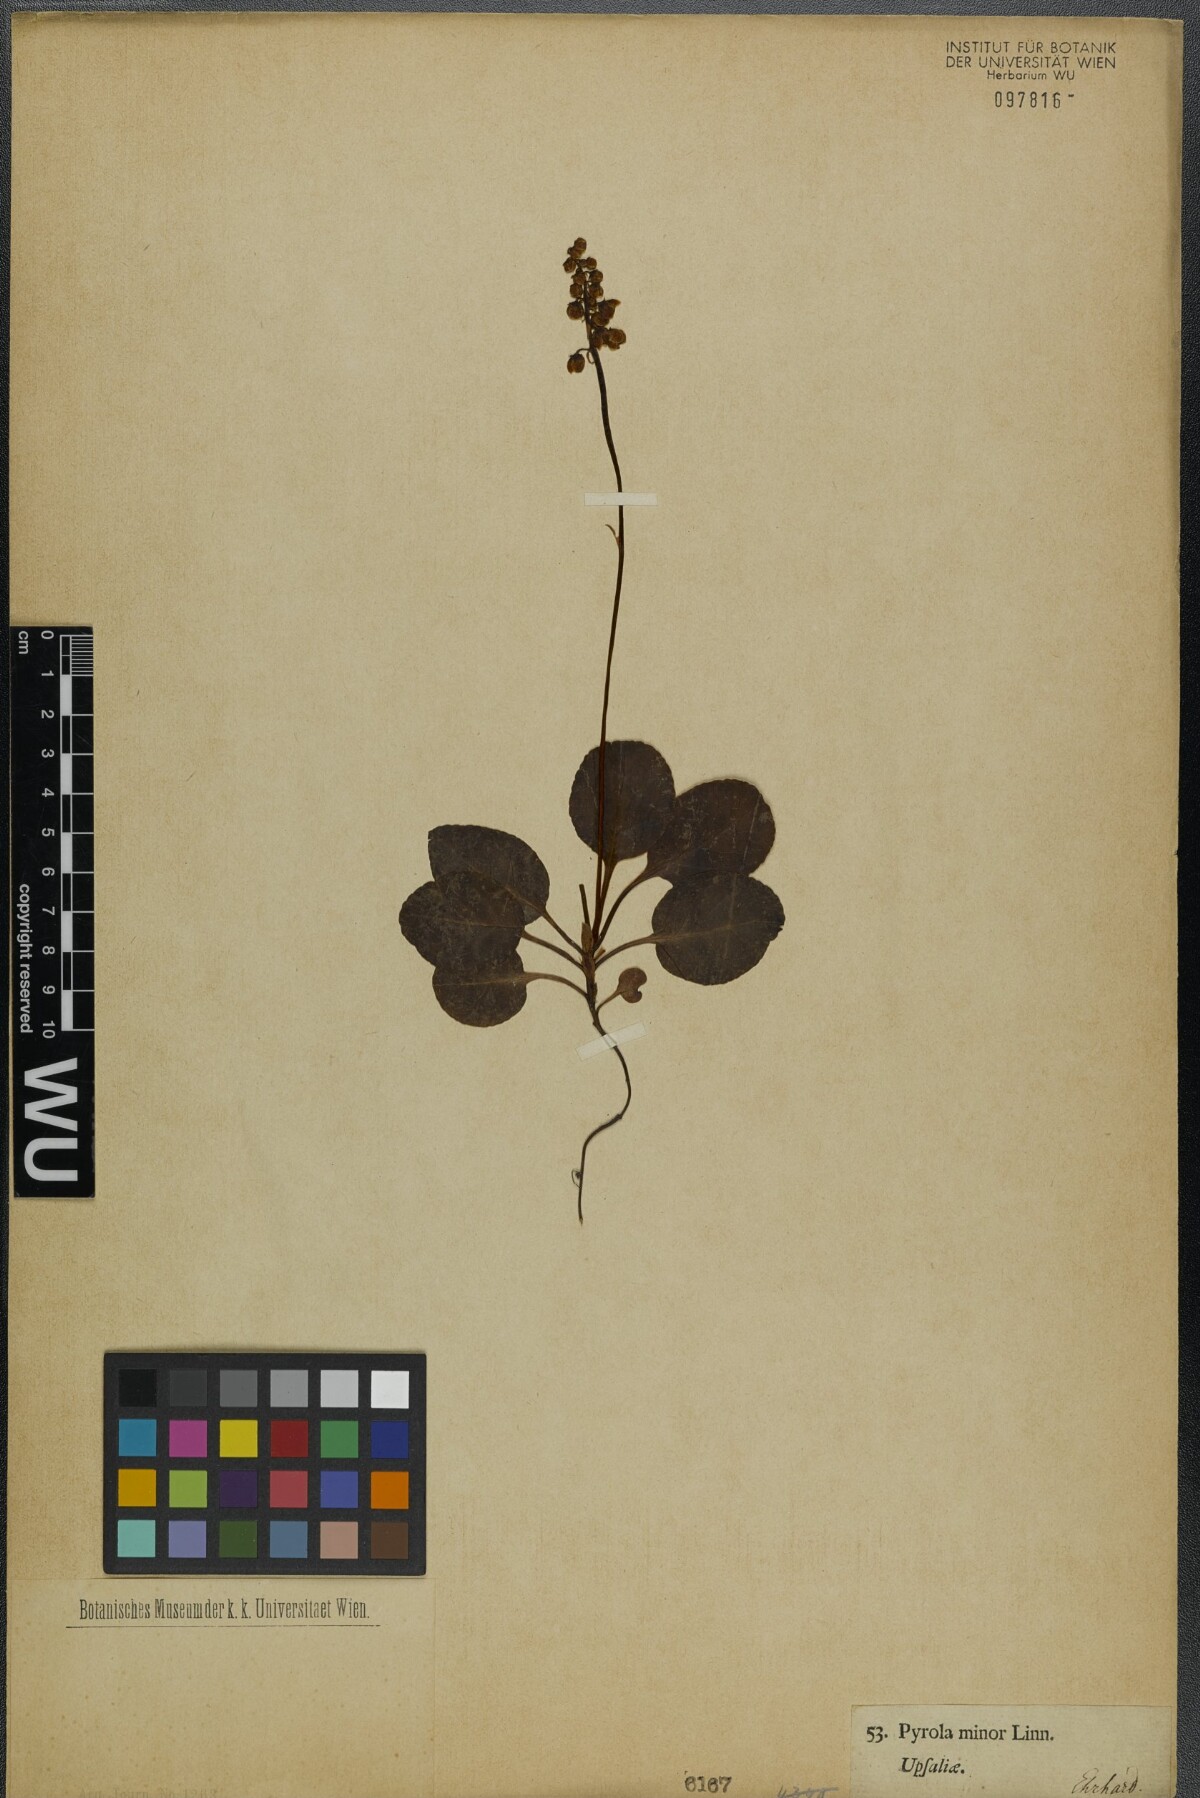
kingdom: Plantae
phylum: Tracheophyta
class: Magnoliopsida
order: Ericales
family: Ericaceae
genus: Pyrola
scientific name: Pyrola minor
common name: Common wintergreen
